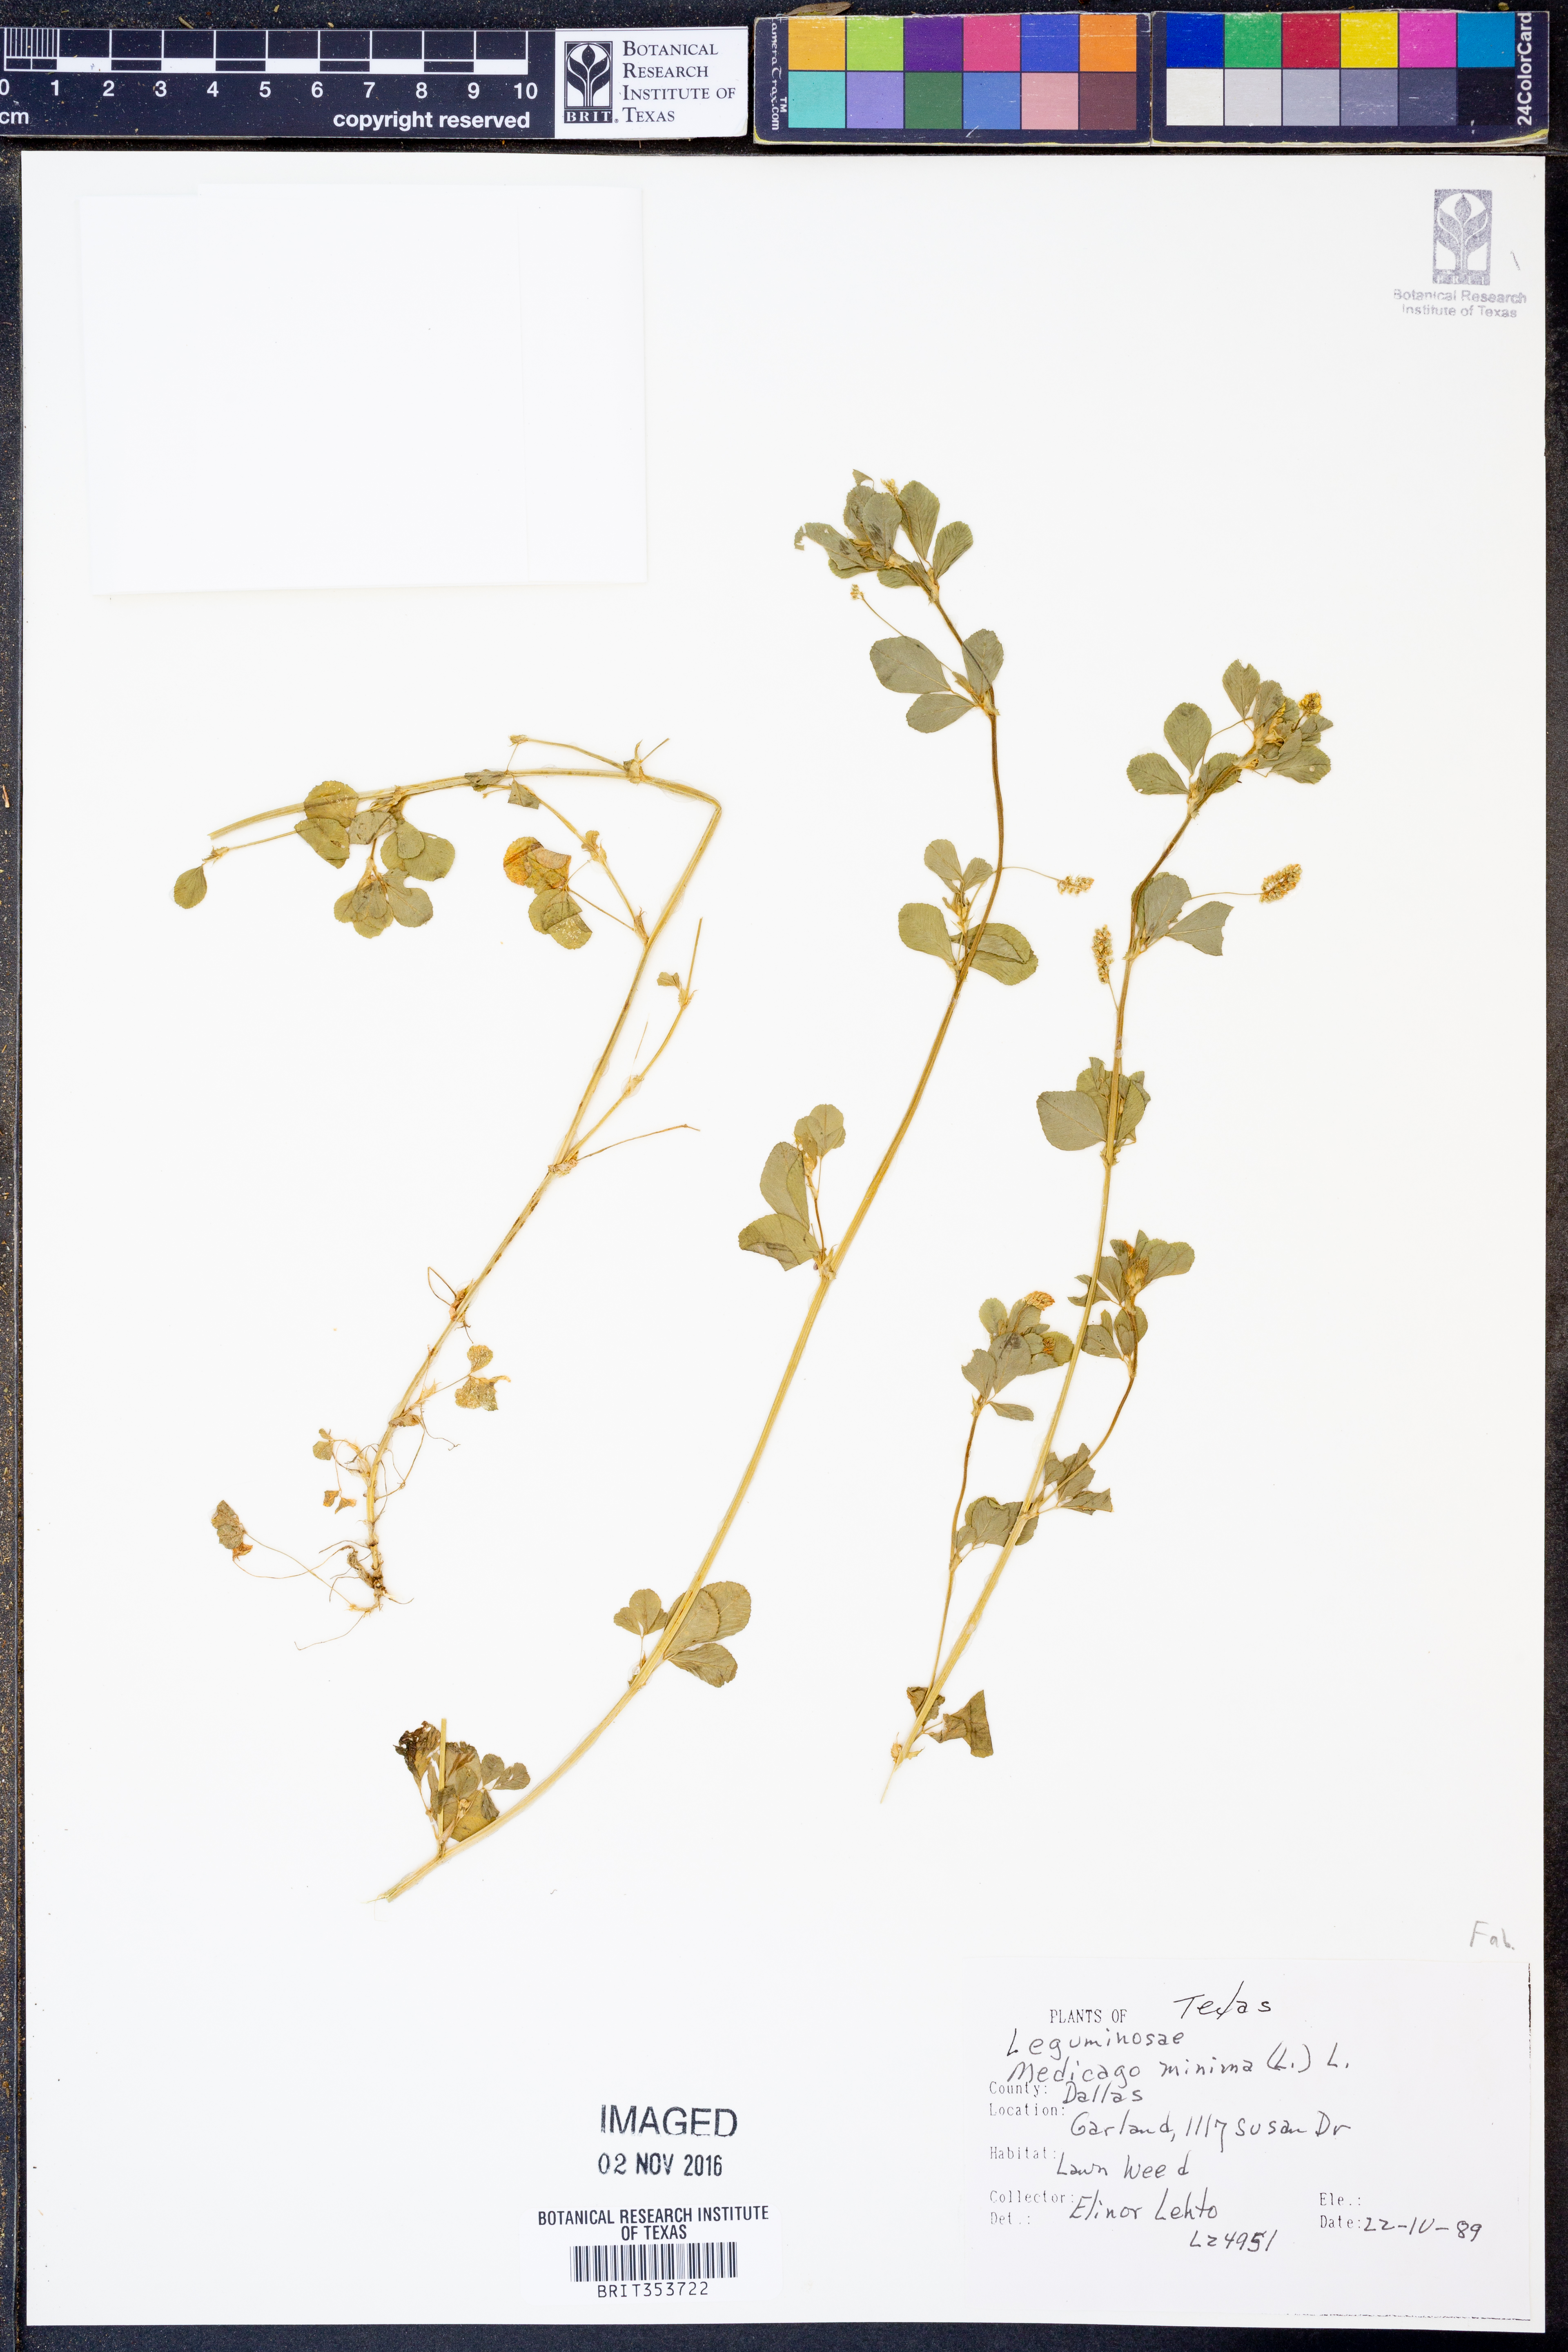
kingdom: Plantae
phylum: Tracheophyta
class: Magnoliopsida
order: Fabales
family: Fabaceae
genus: Medicago
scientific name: Medicago minima
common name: Little bur-clover
